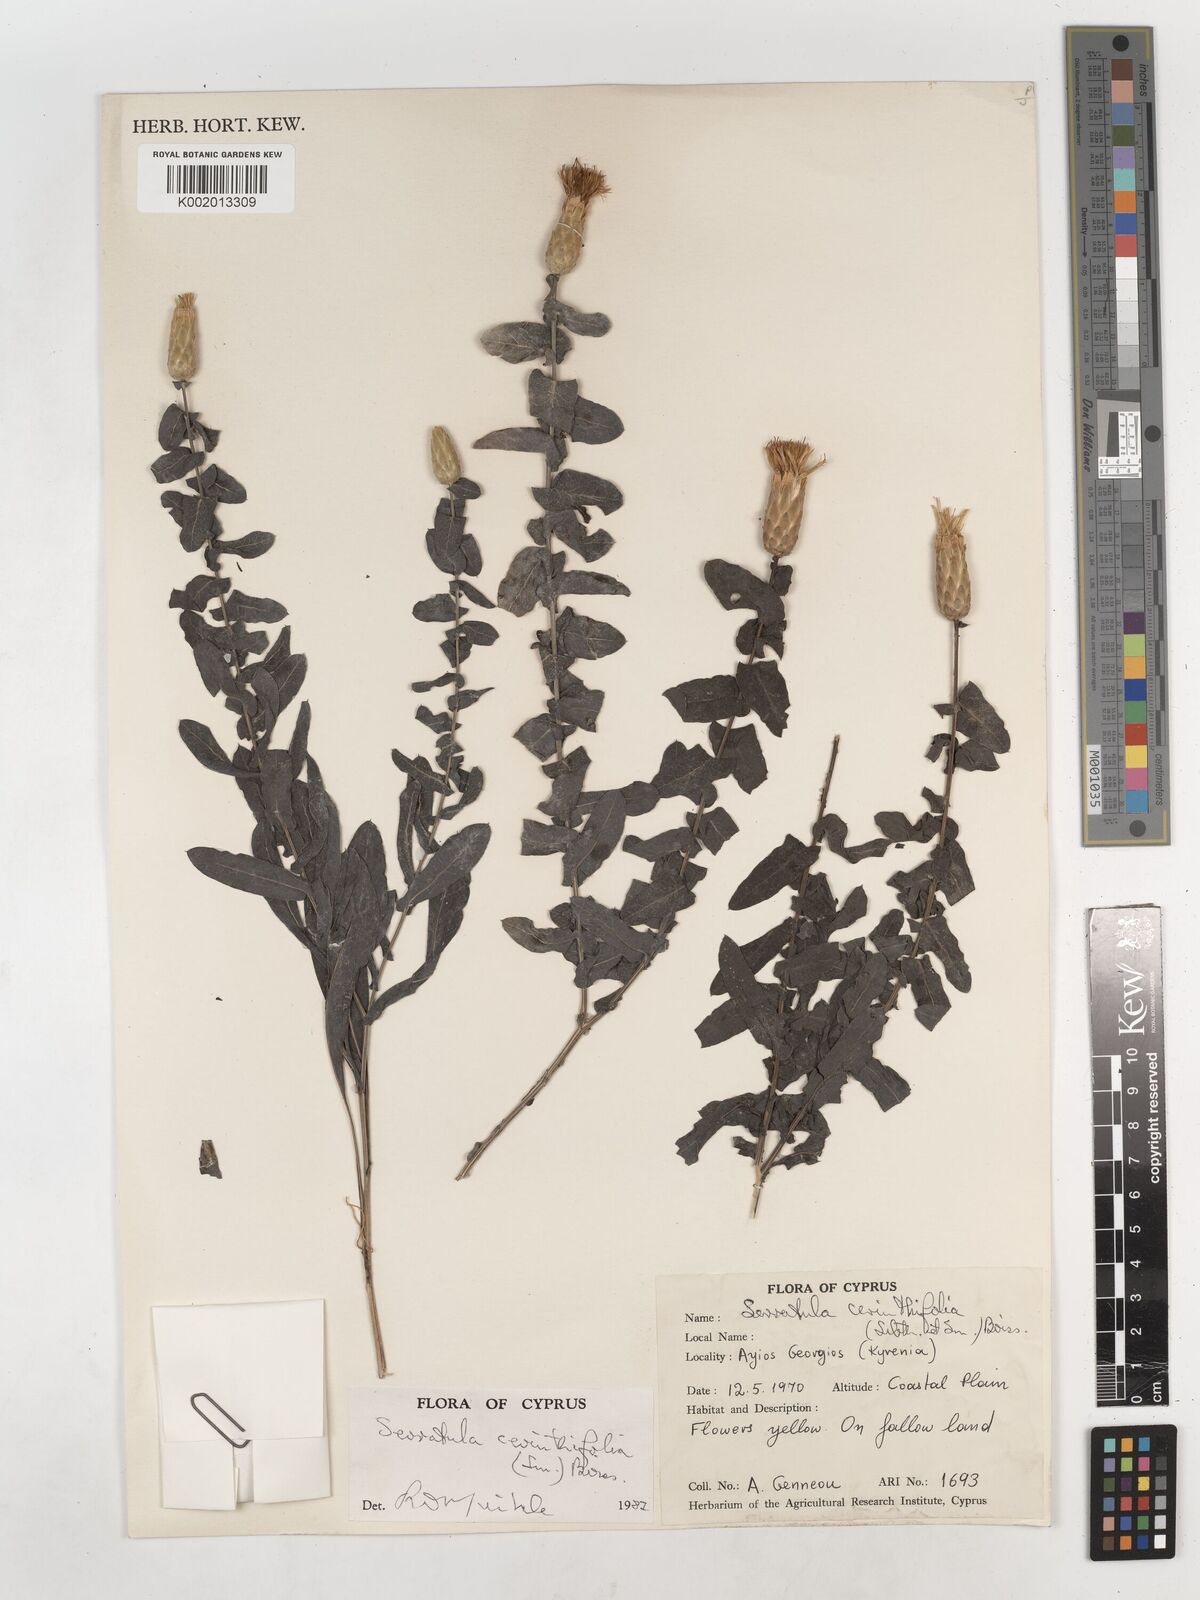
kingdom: Plantae
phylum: Tracheophyta
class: Magnoliopsida
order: Asterales
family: Asteraceae
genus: Klasea
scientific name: Klasea cerinthifolia
